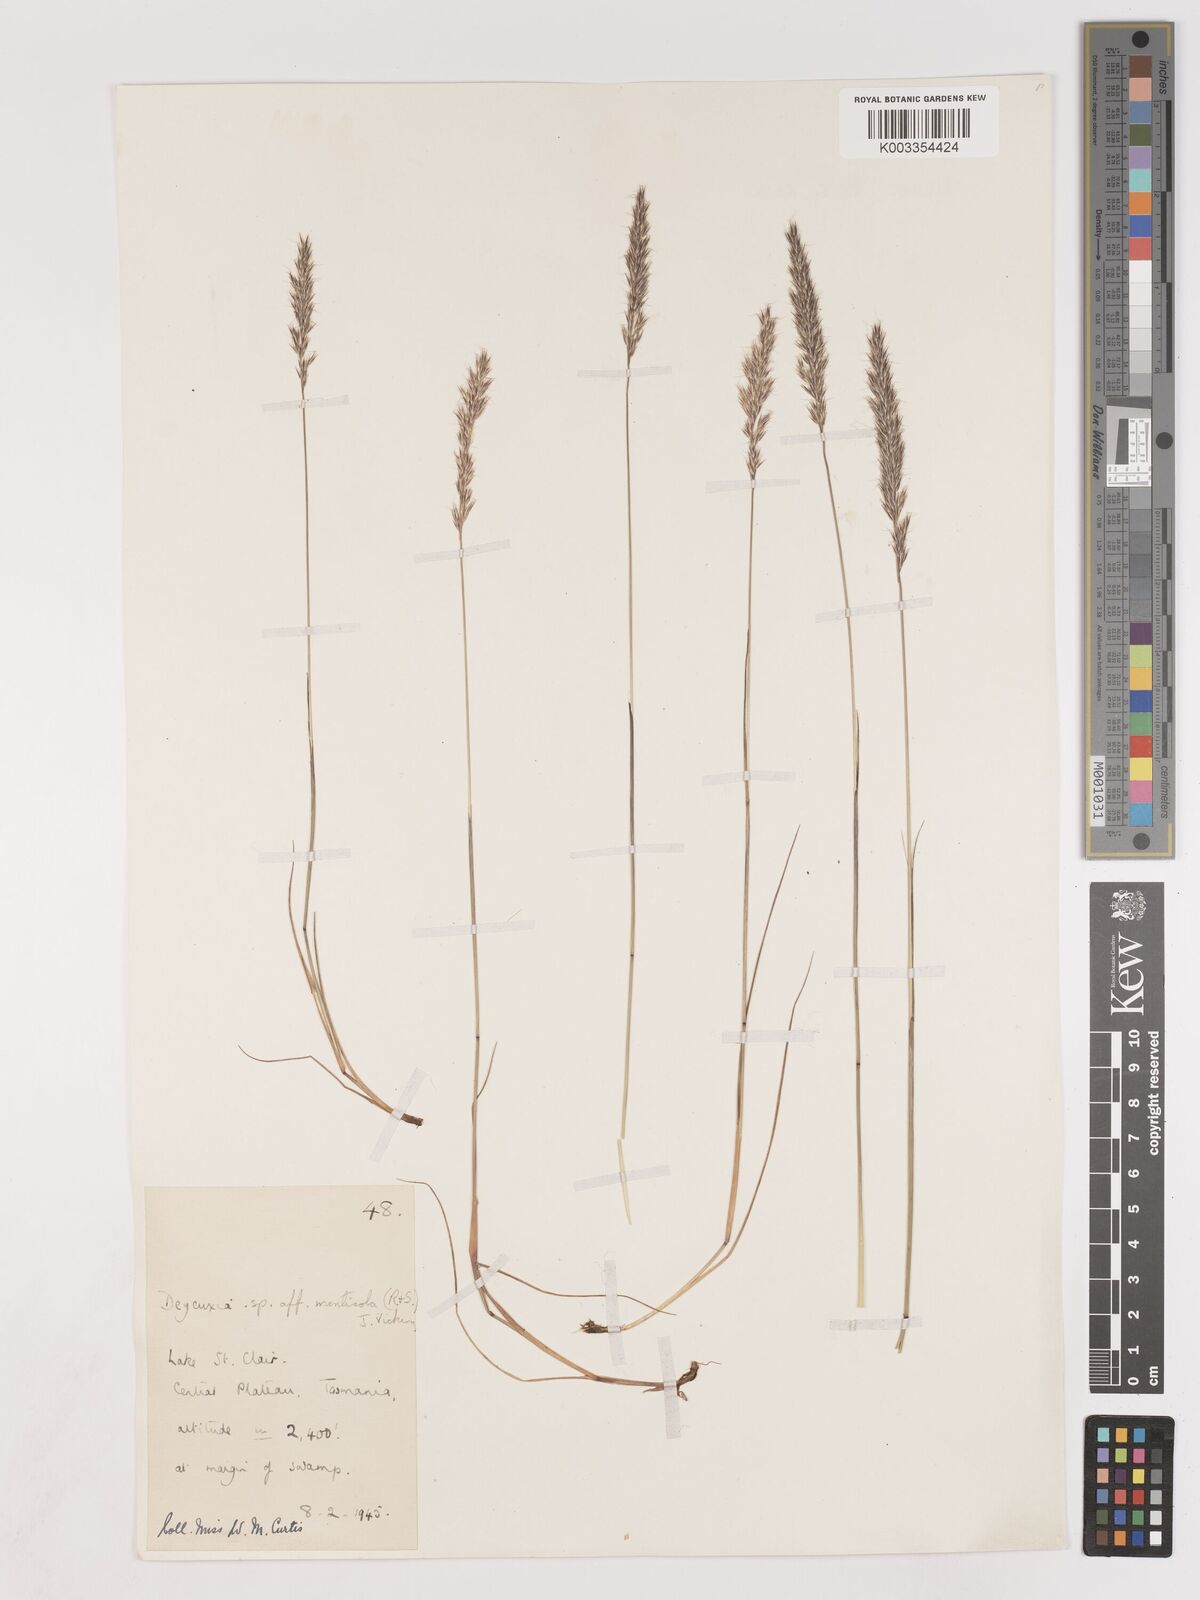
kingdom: Plantae
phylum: Tracheophyta
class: Liliopsida
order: Poales
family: Poaceae
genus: Calamagrostis
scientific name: Calamagrostis
